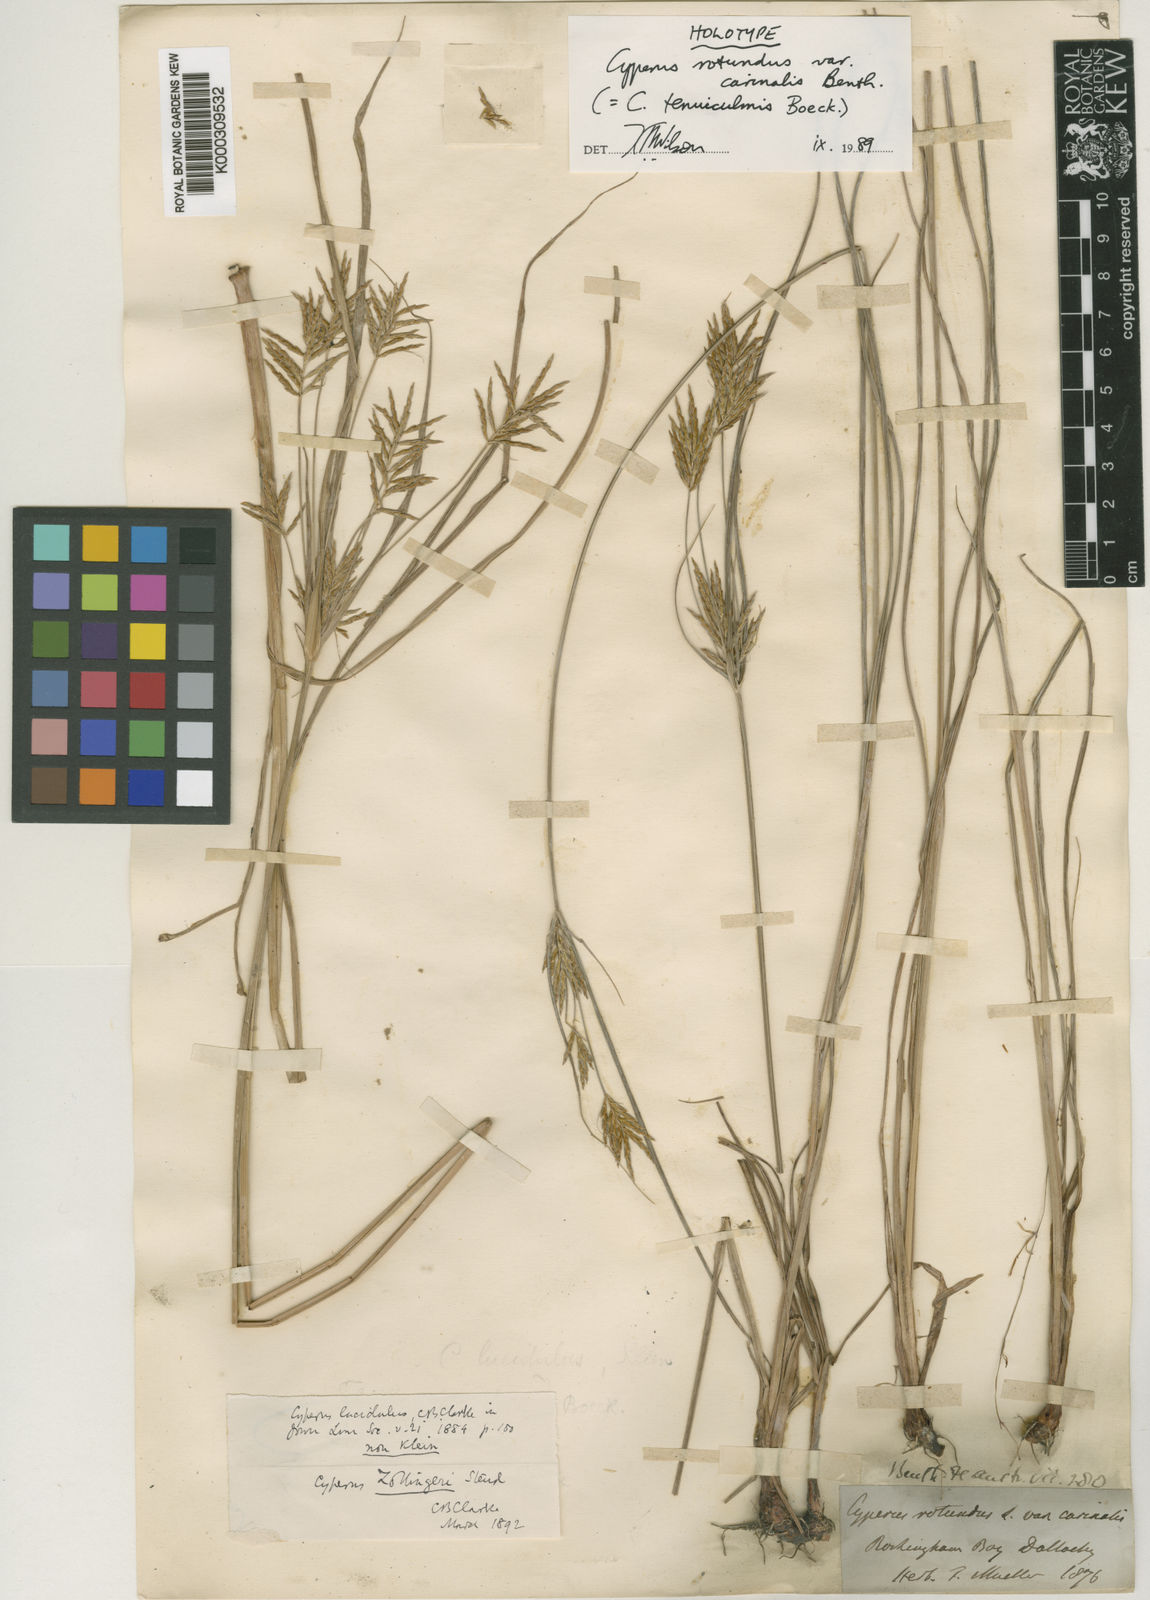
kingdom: Plantae
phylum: Tracheophyta
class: Liliopsida
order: Poales
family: Cyperaceae
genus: Cyperus
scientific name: Cyperus zollingeri
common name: Roadside flatsedge
